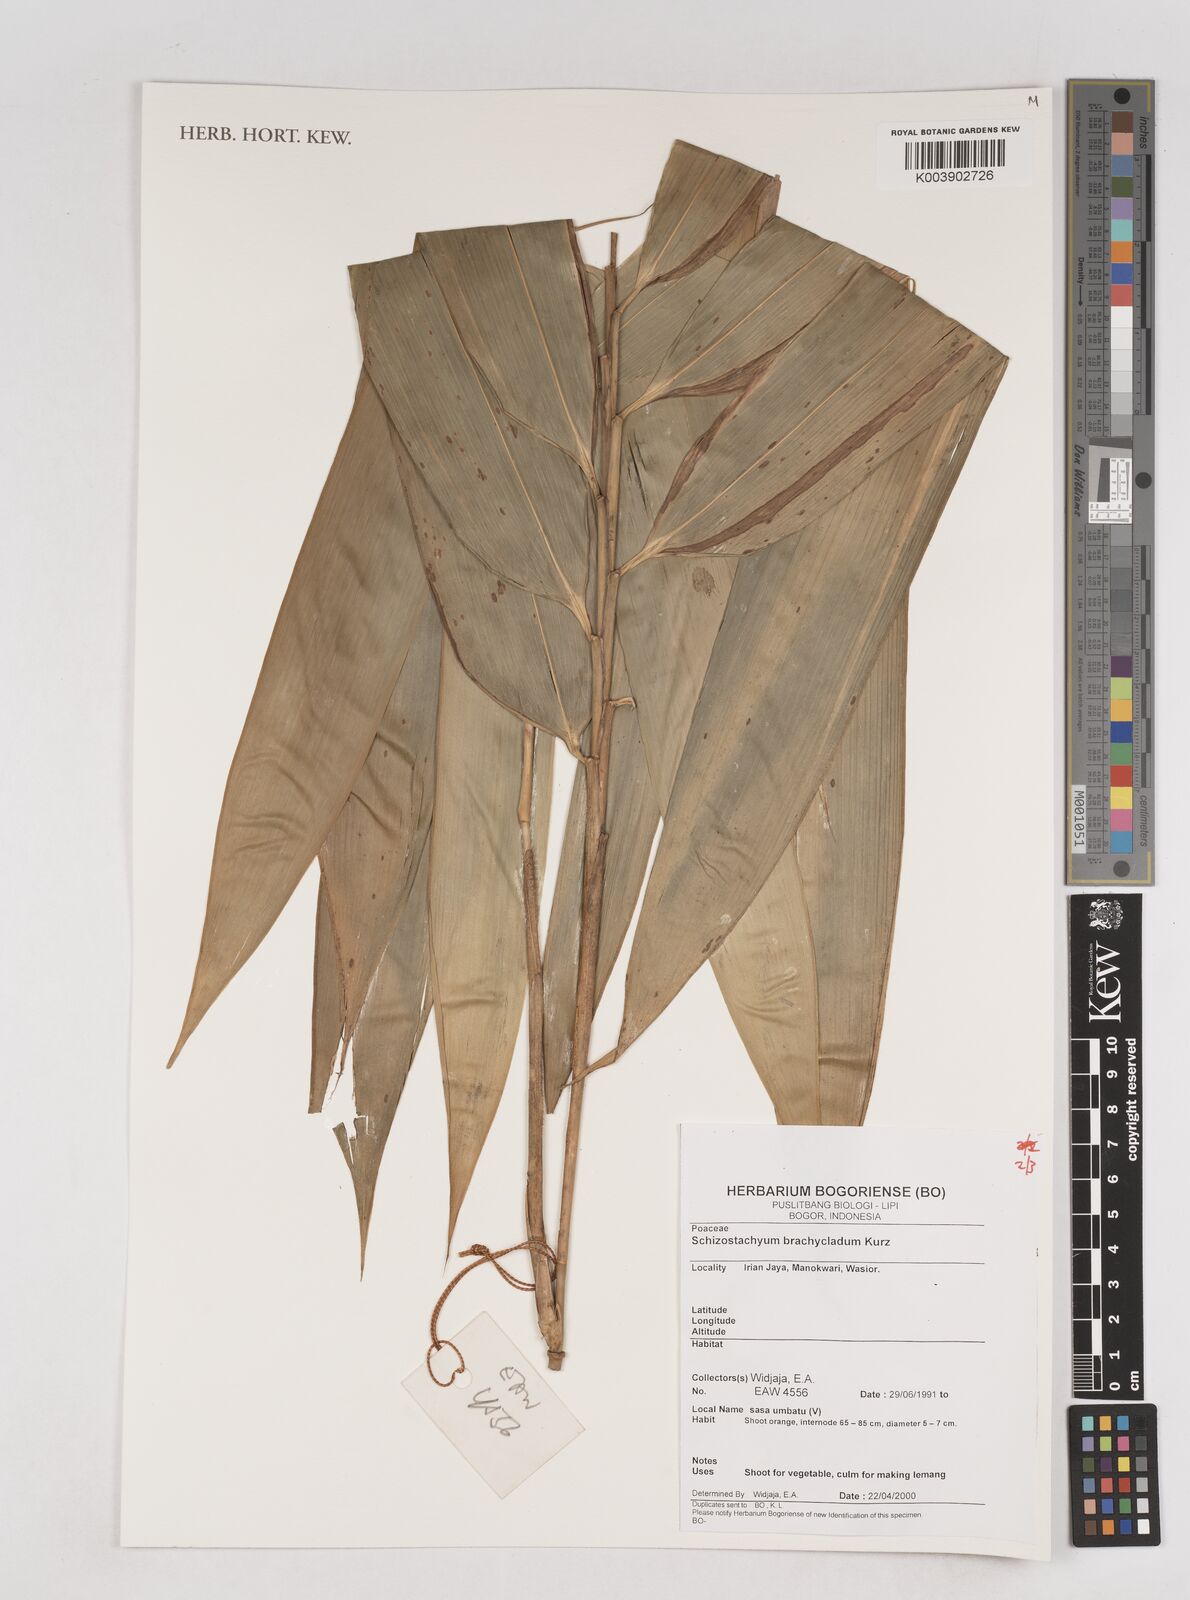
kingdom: Plantae
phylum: Tracheophyta
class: Liliopsida
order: Poales
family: Poaceae
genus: Schizostachyum
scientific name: Schizostachyum brachycladum
